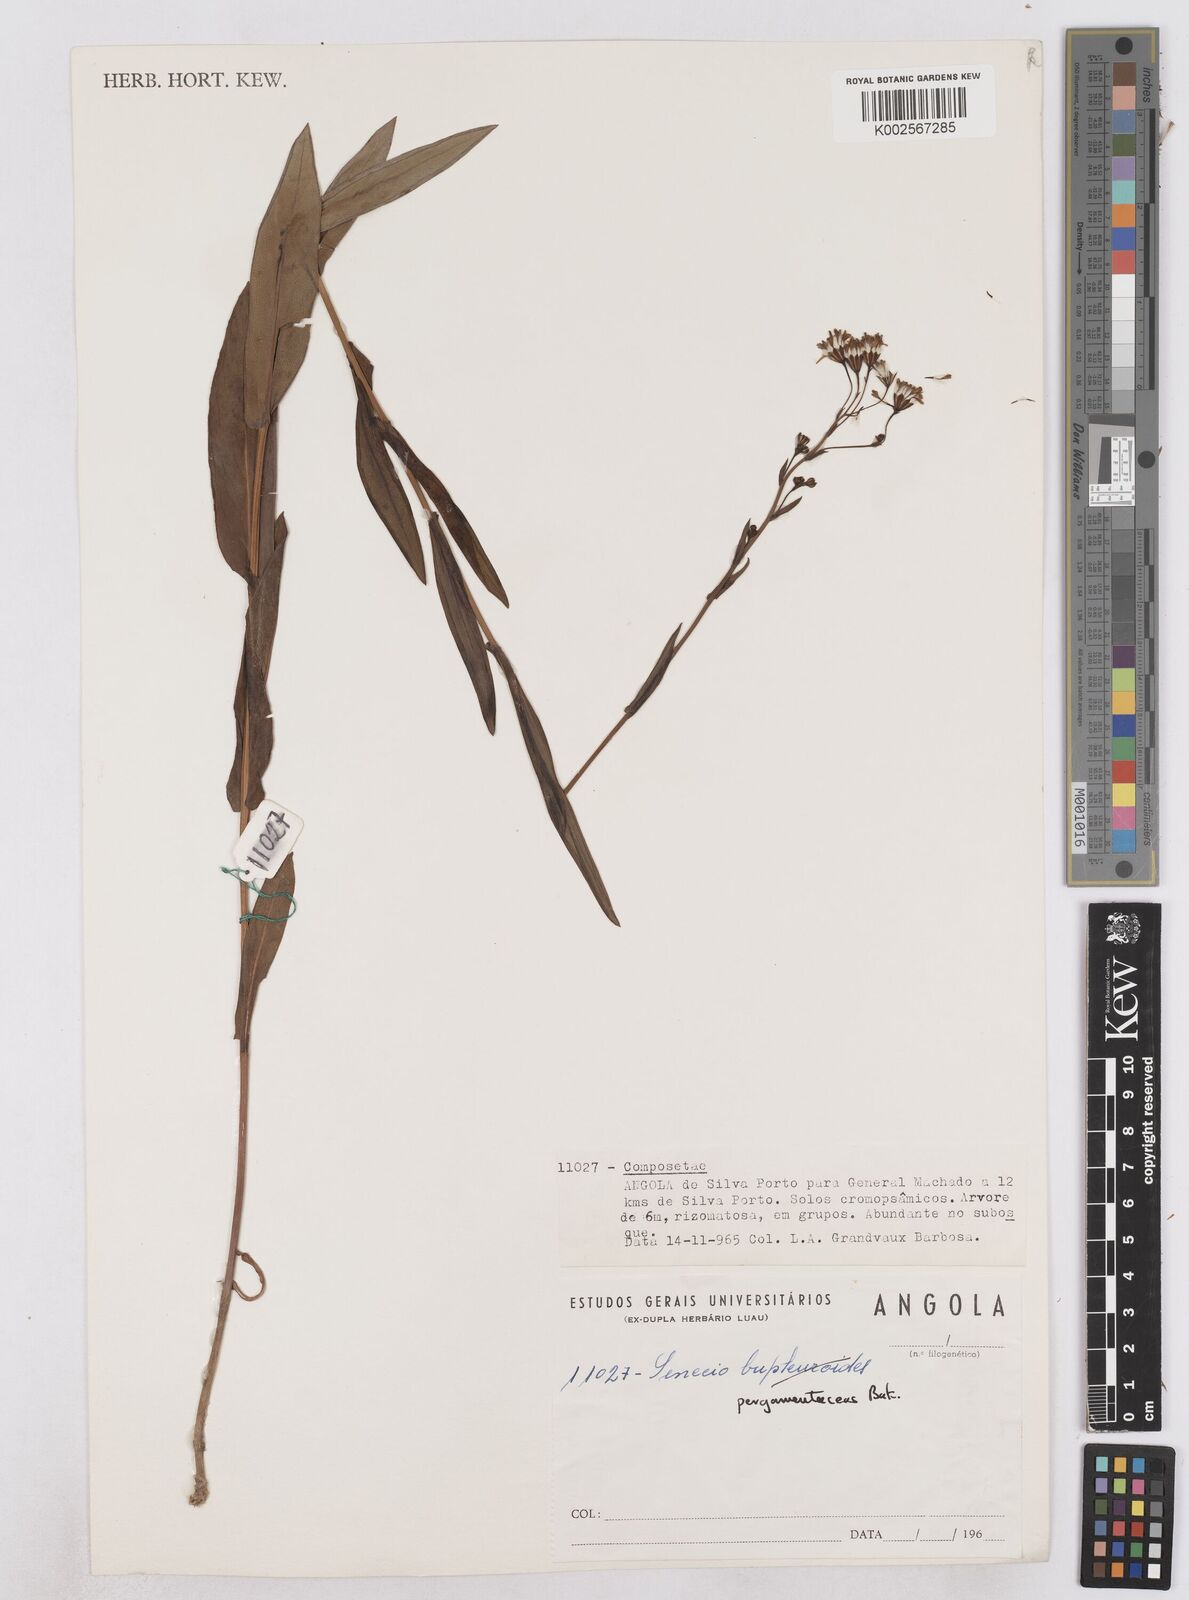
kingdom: Plantae
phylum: Tracheophyta
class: Magnoliopsida
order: Asterales
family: Asteraceae
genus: Senecio
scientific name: Senecio latifolius
